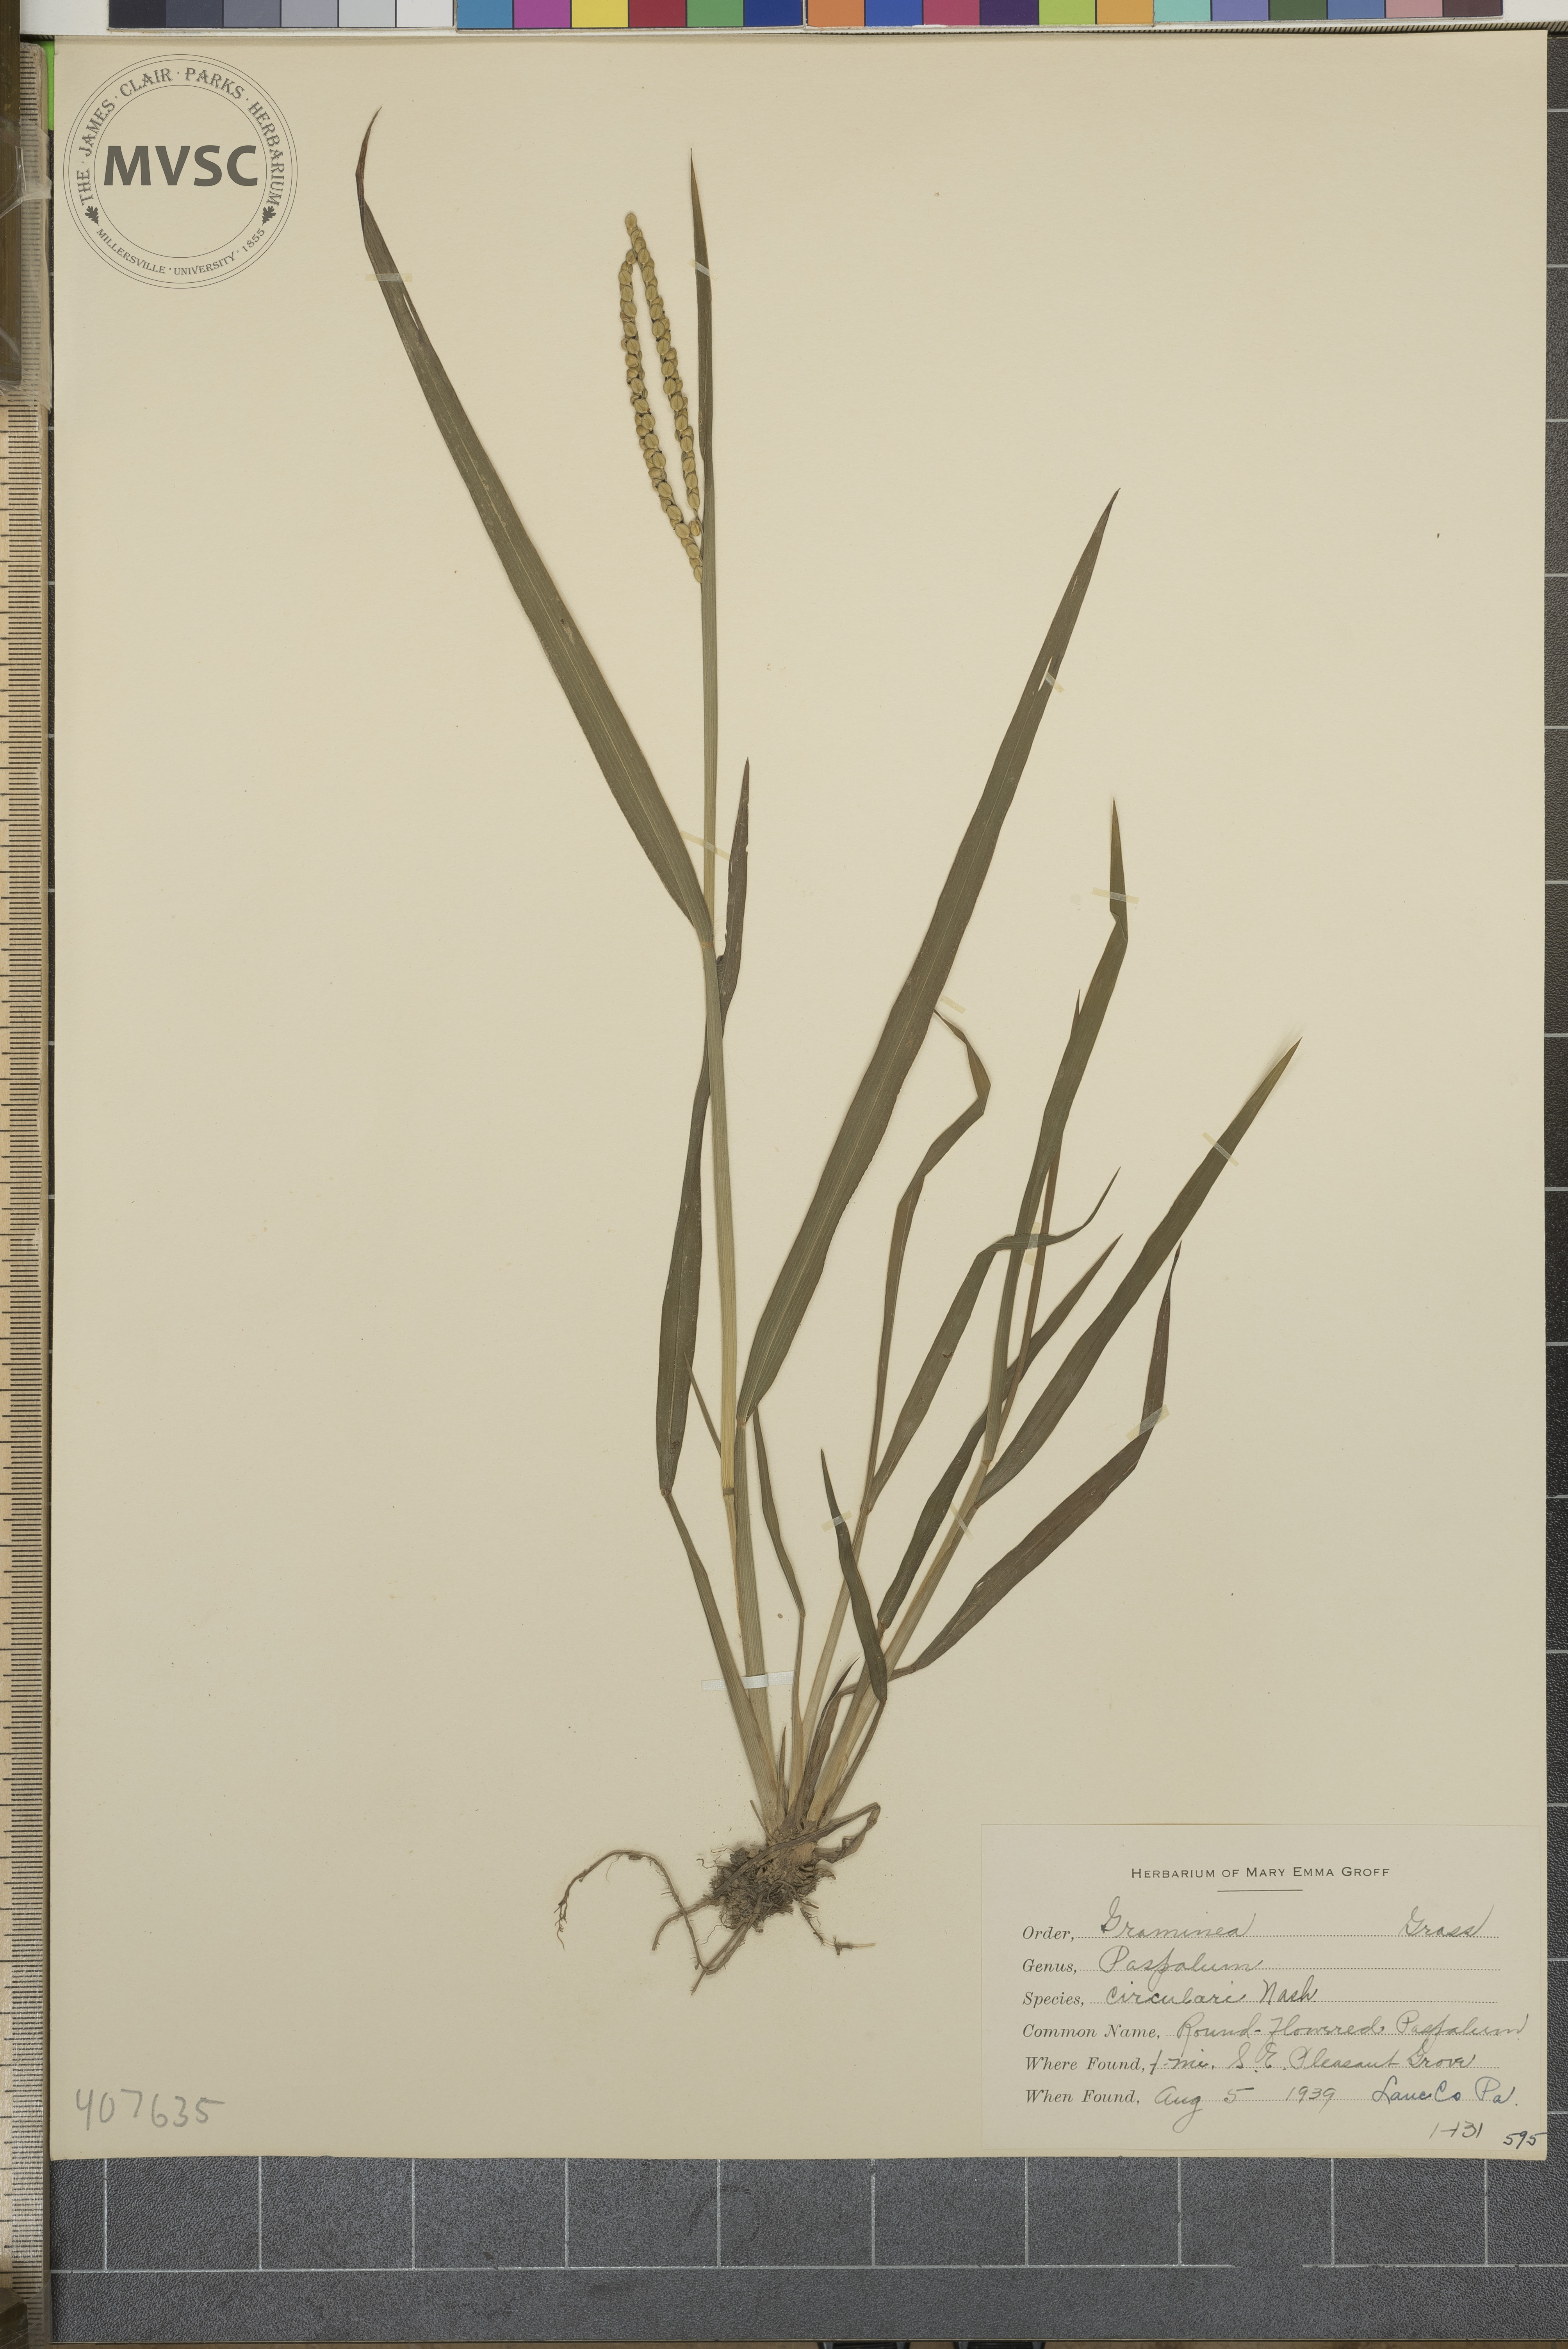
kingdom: Plantae
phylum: Tracheophyta
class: Liliopsida
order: Poales
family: Poaceae
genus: Paspalum
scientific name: Paspalum laeve
